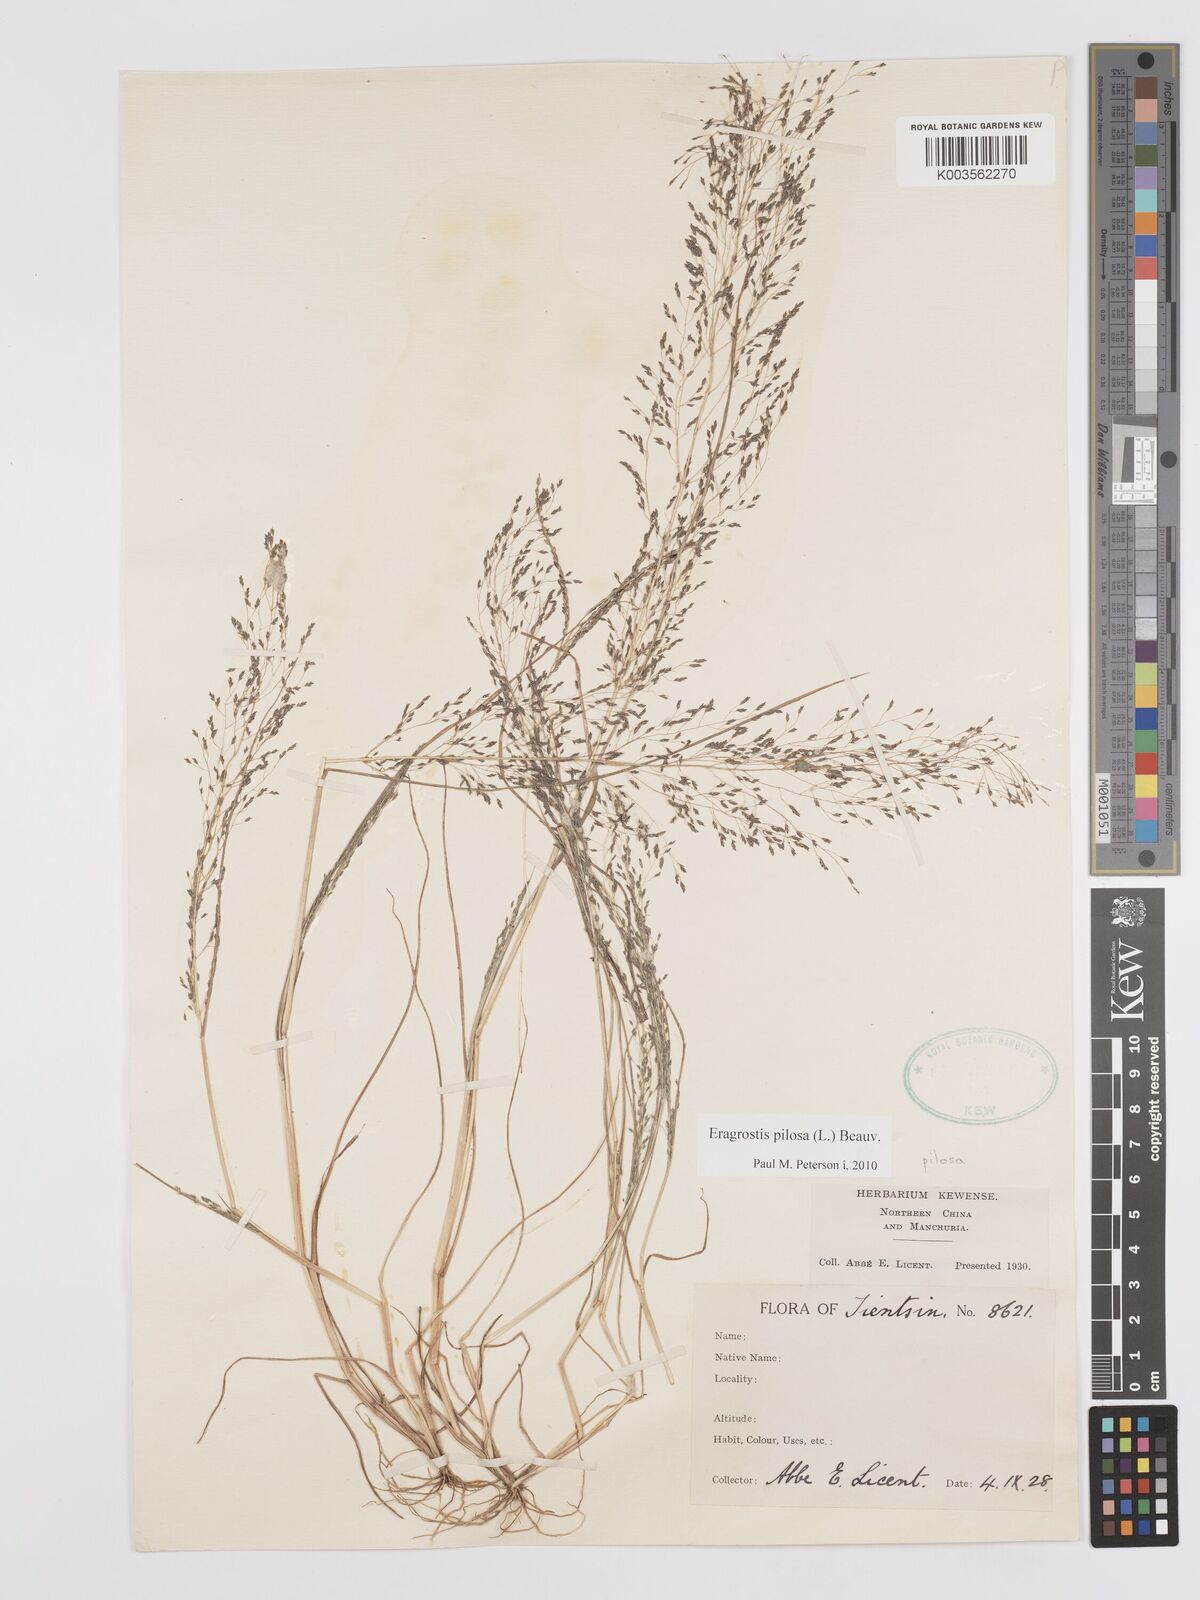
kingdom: Plantae
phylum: Tracheophyta
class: Liliopsida
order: Poales
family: Poaceae
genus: Eragrostis
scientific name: Eragrostis pilosa
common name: Indian lovegrass
